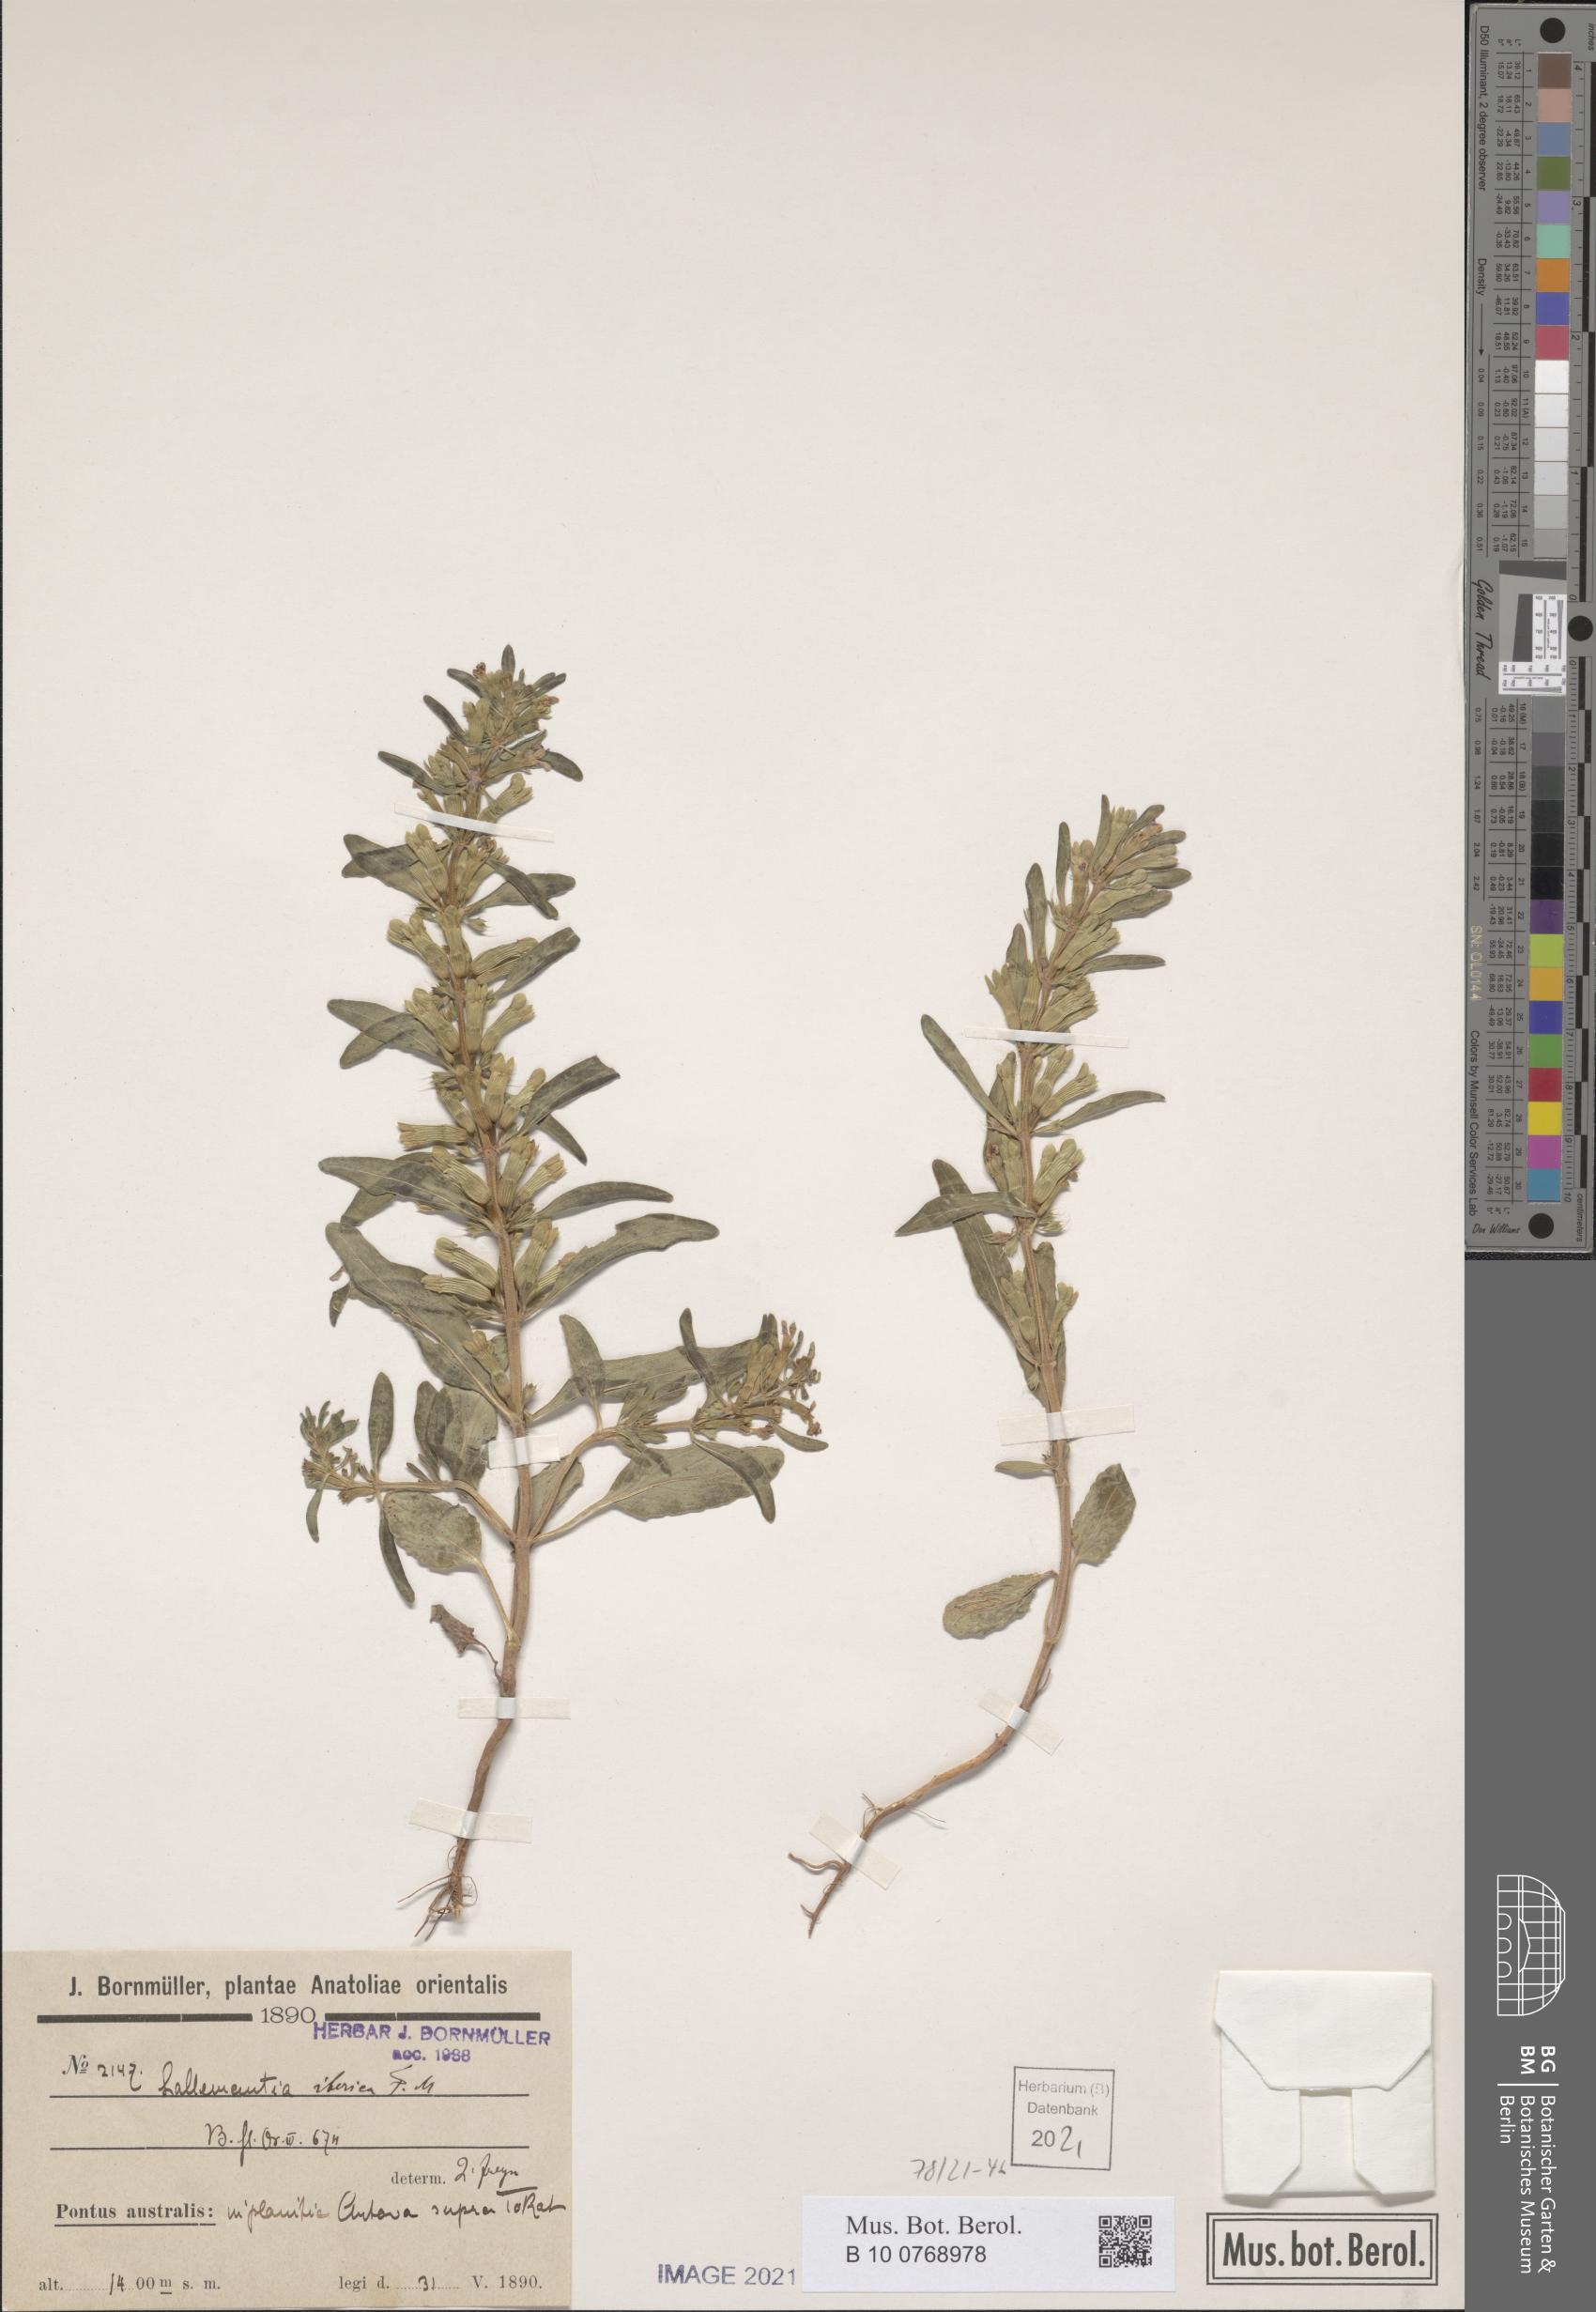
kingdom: Plantae
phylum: Tracheophyta
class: Magnoliopsida
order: Lamiales
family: Lamiaceae
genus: Lallemantia
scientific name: Lallemantia iberica
